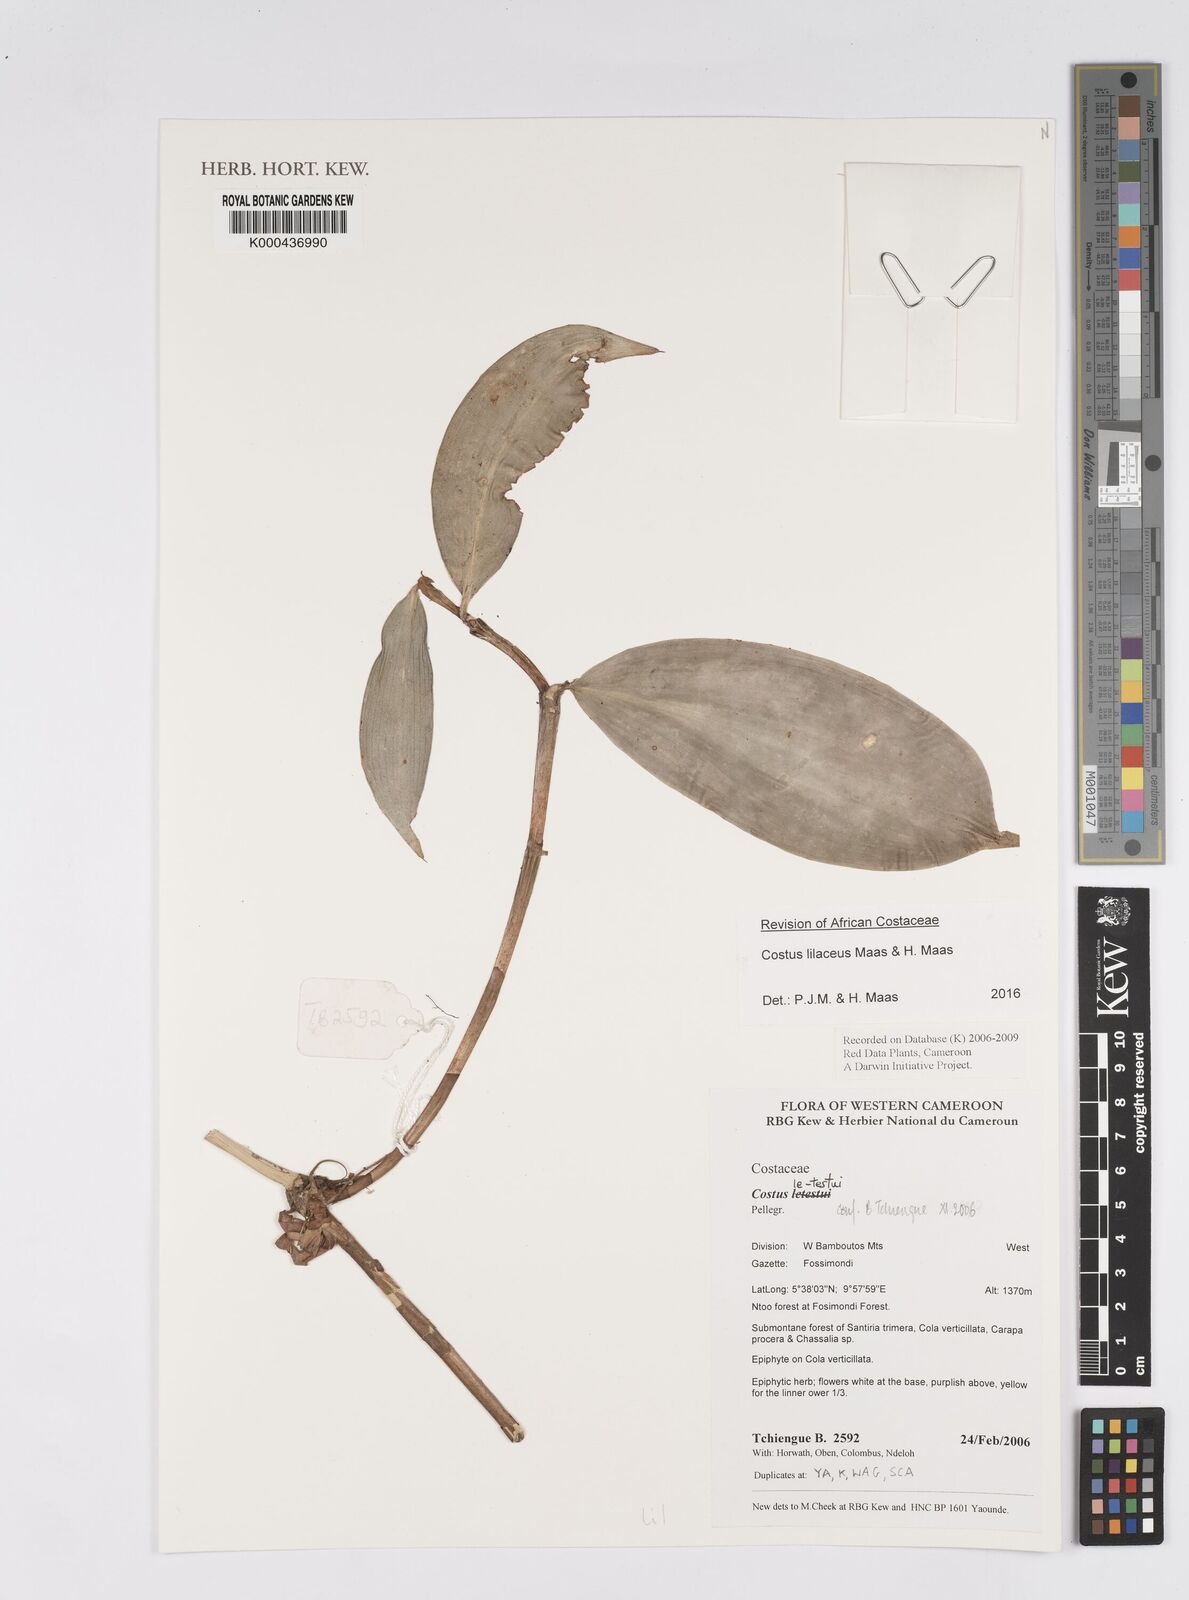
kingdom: Plantae
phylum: Tracheophyta
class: Liliopsida
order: Zingiberales
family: Costaceae
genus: Costus
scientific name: Costus lateriflorus
